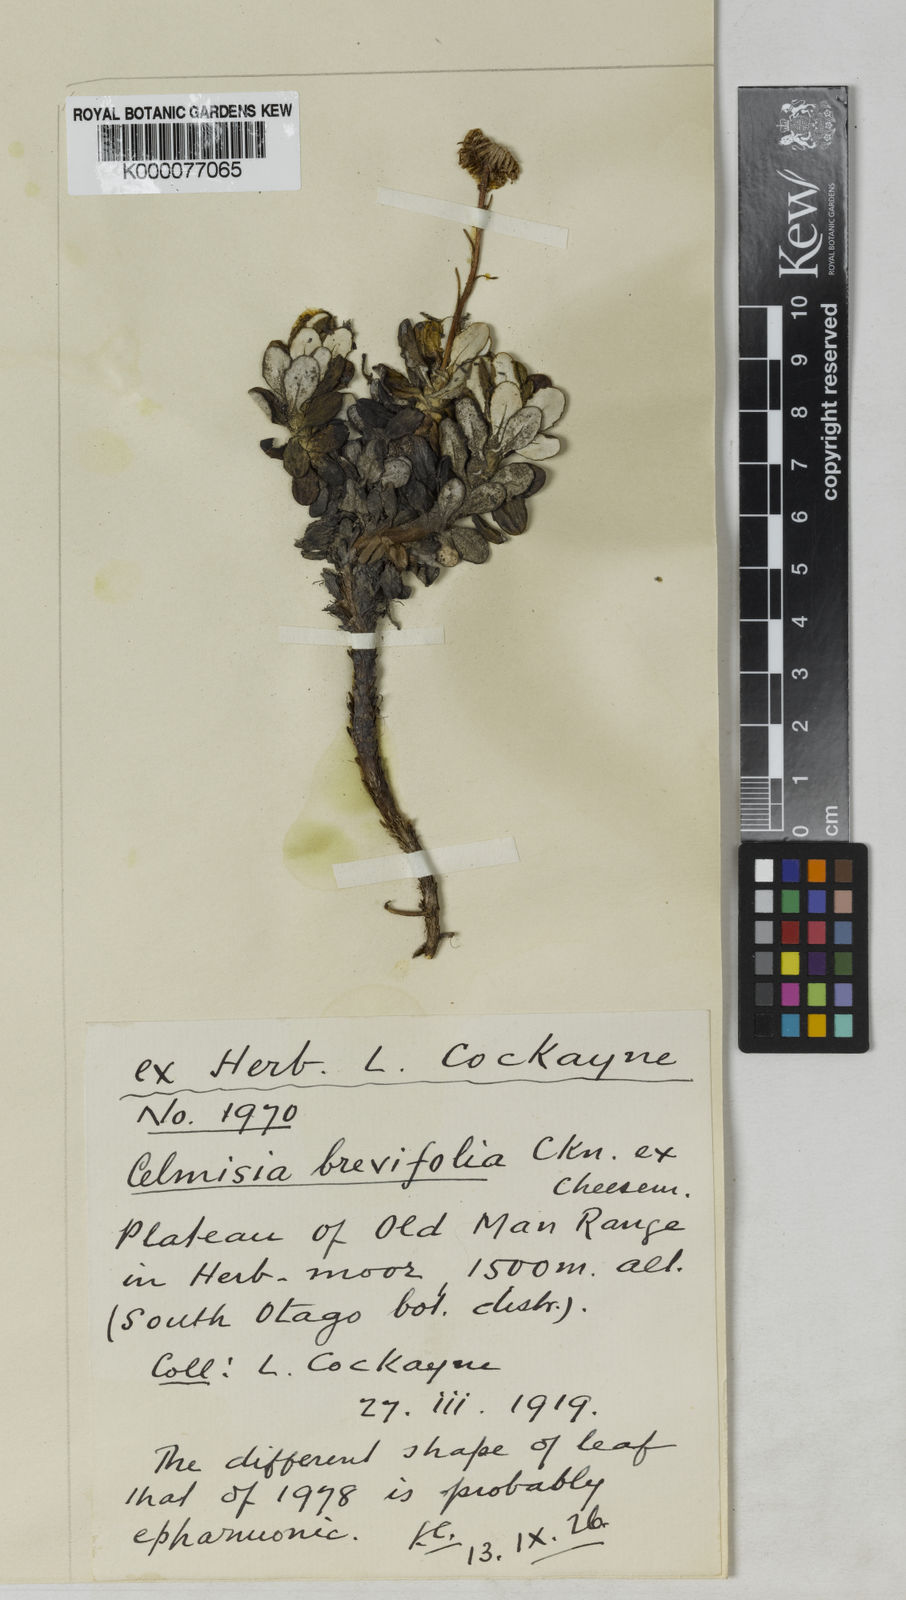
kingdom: Plantae
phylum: Tracheophyta
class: Magnoliopsida
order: Asterales
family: Asteraceae
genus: Celmisia
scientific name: Celmisia ramulosa
